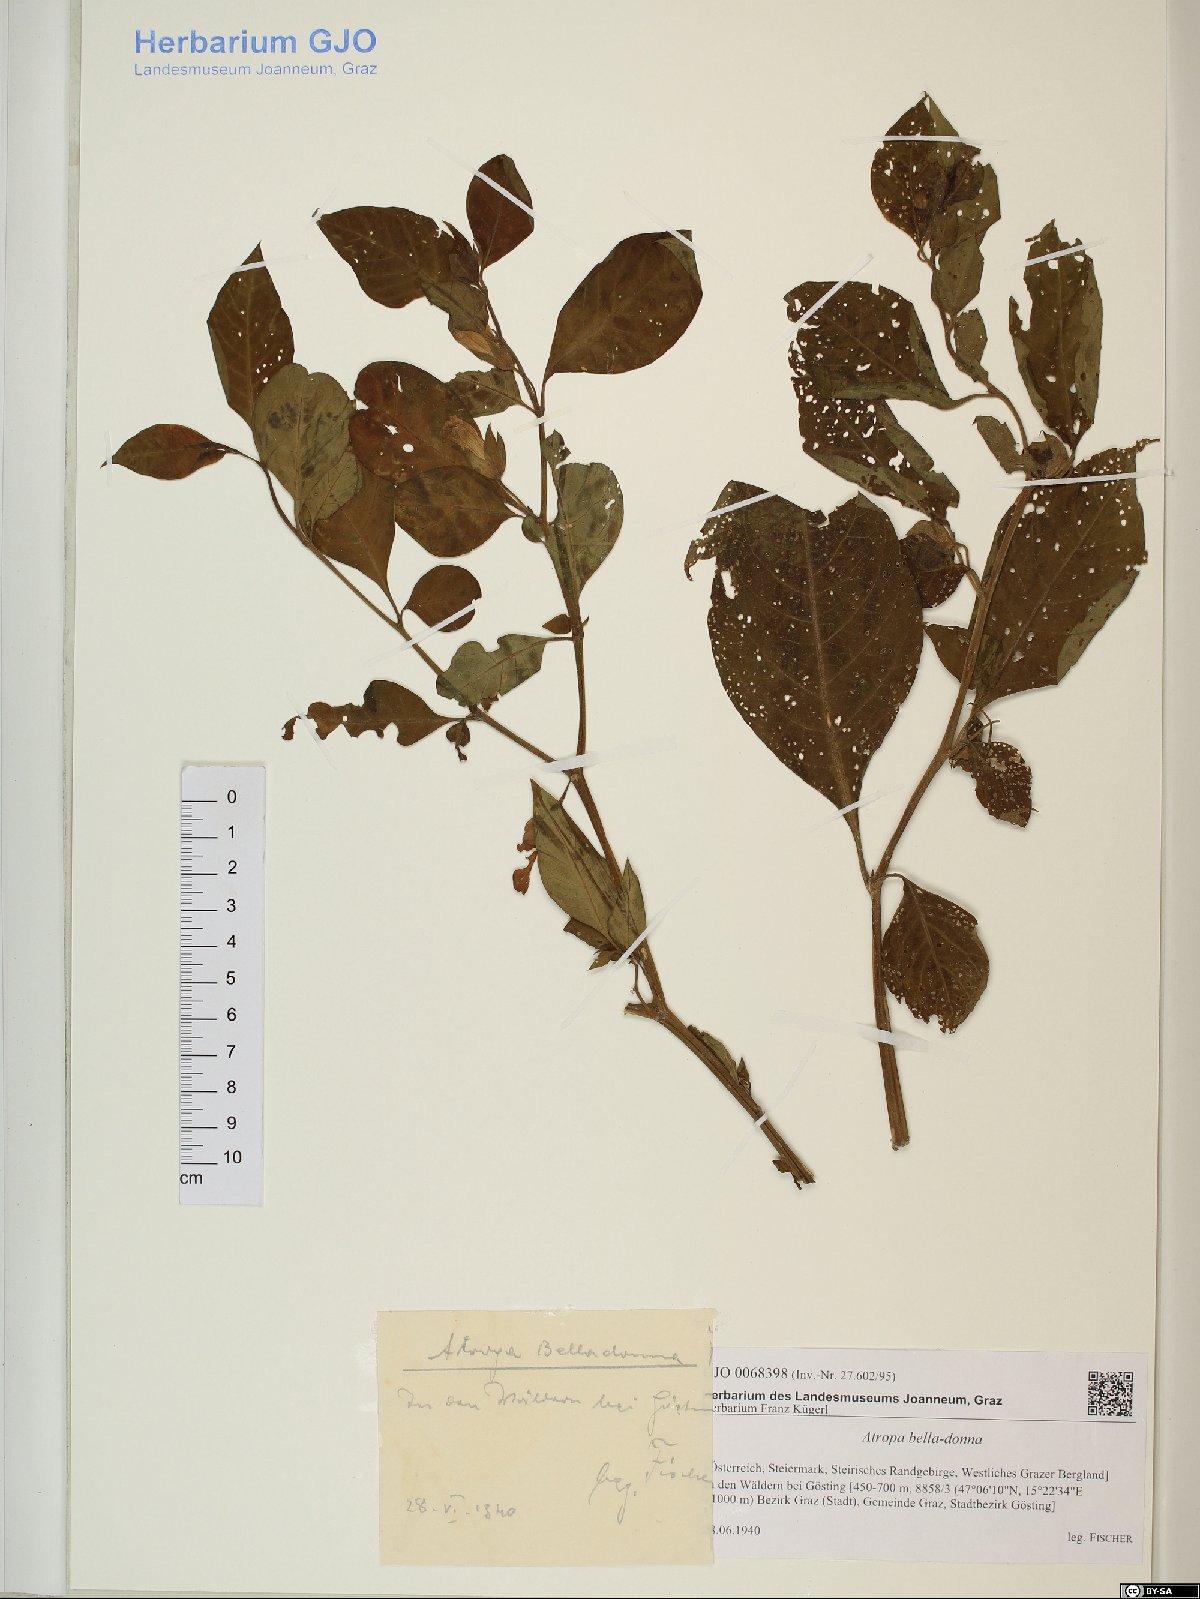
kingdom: Plantae
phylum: Tracheophyta
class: Magnoliopsida
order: Solanales
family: Solanaceae
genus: Atropa
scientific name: Atropa belladonna
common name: Deadly nightshade
